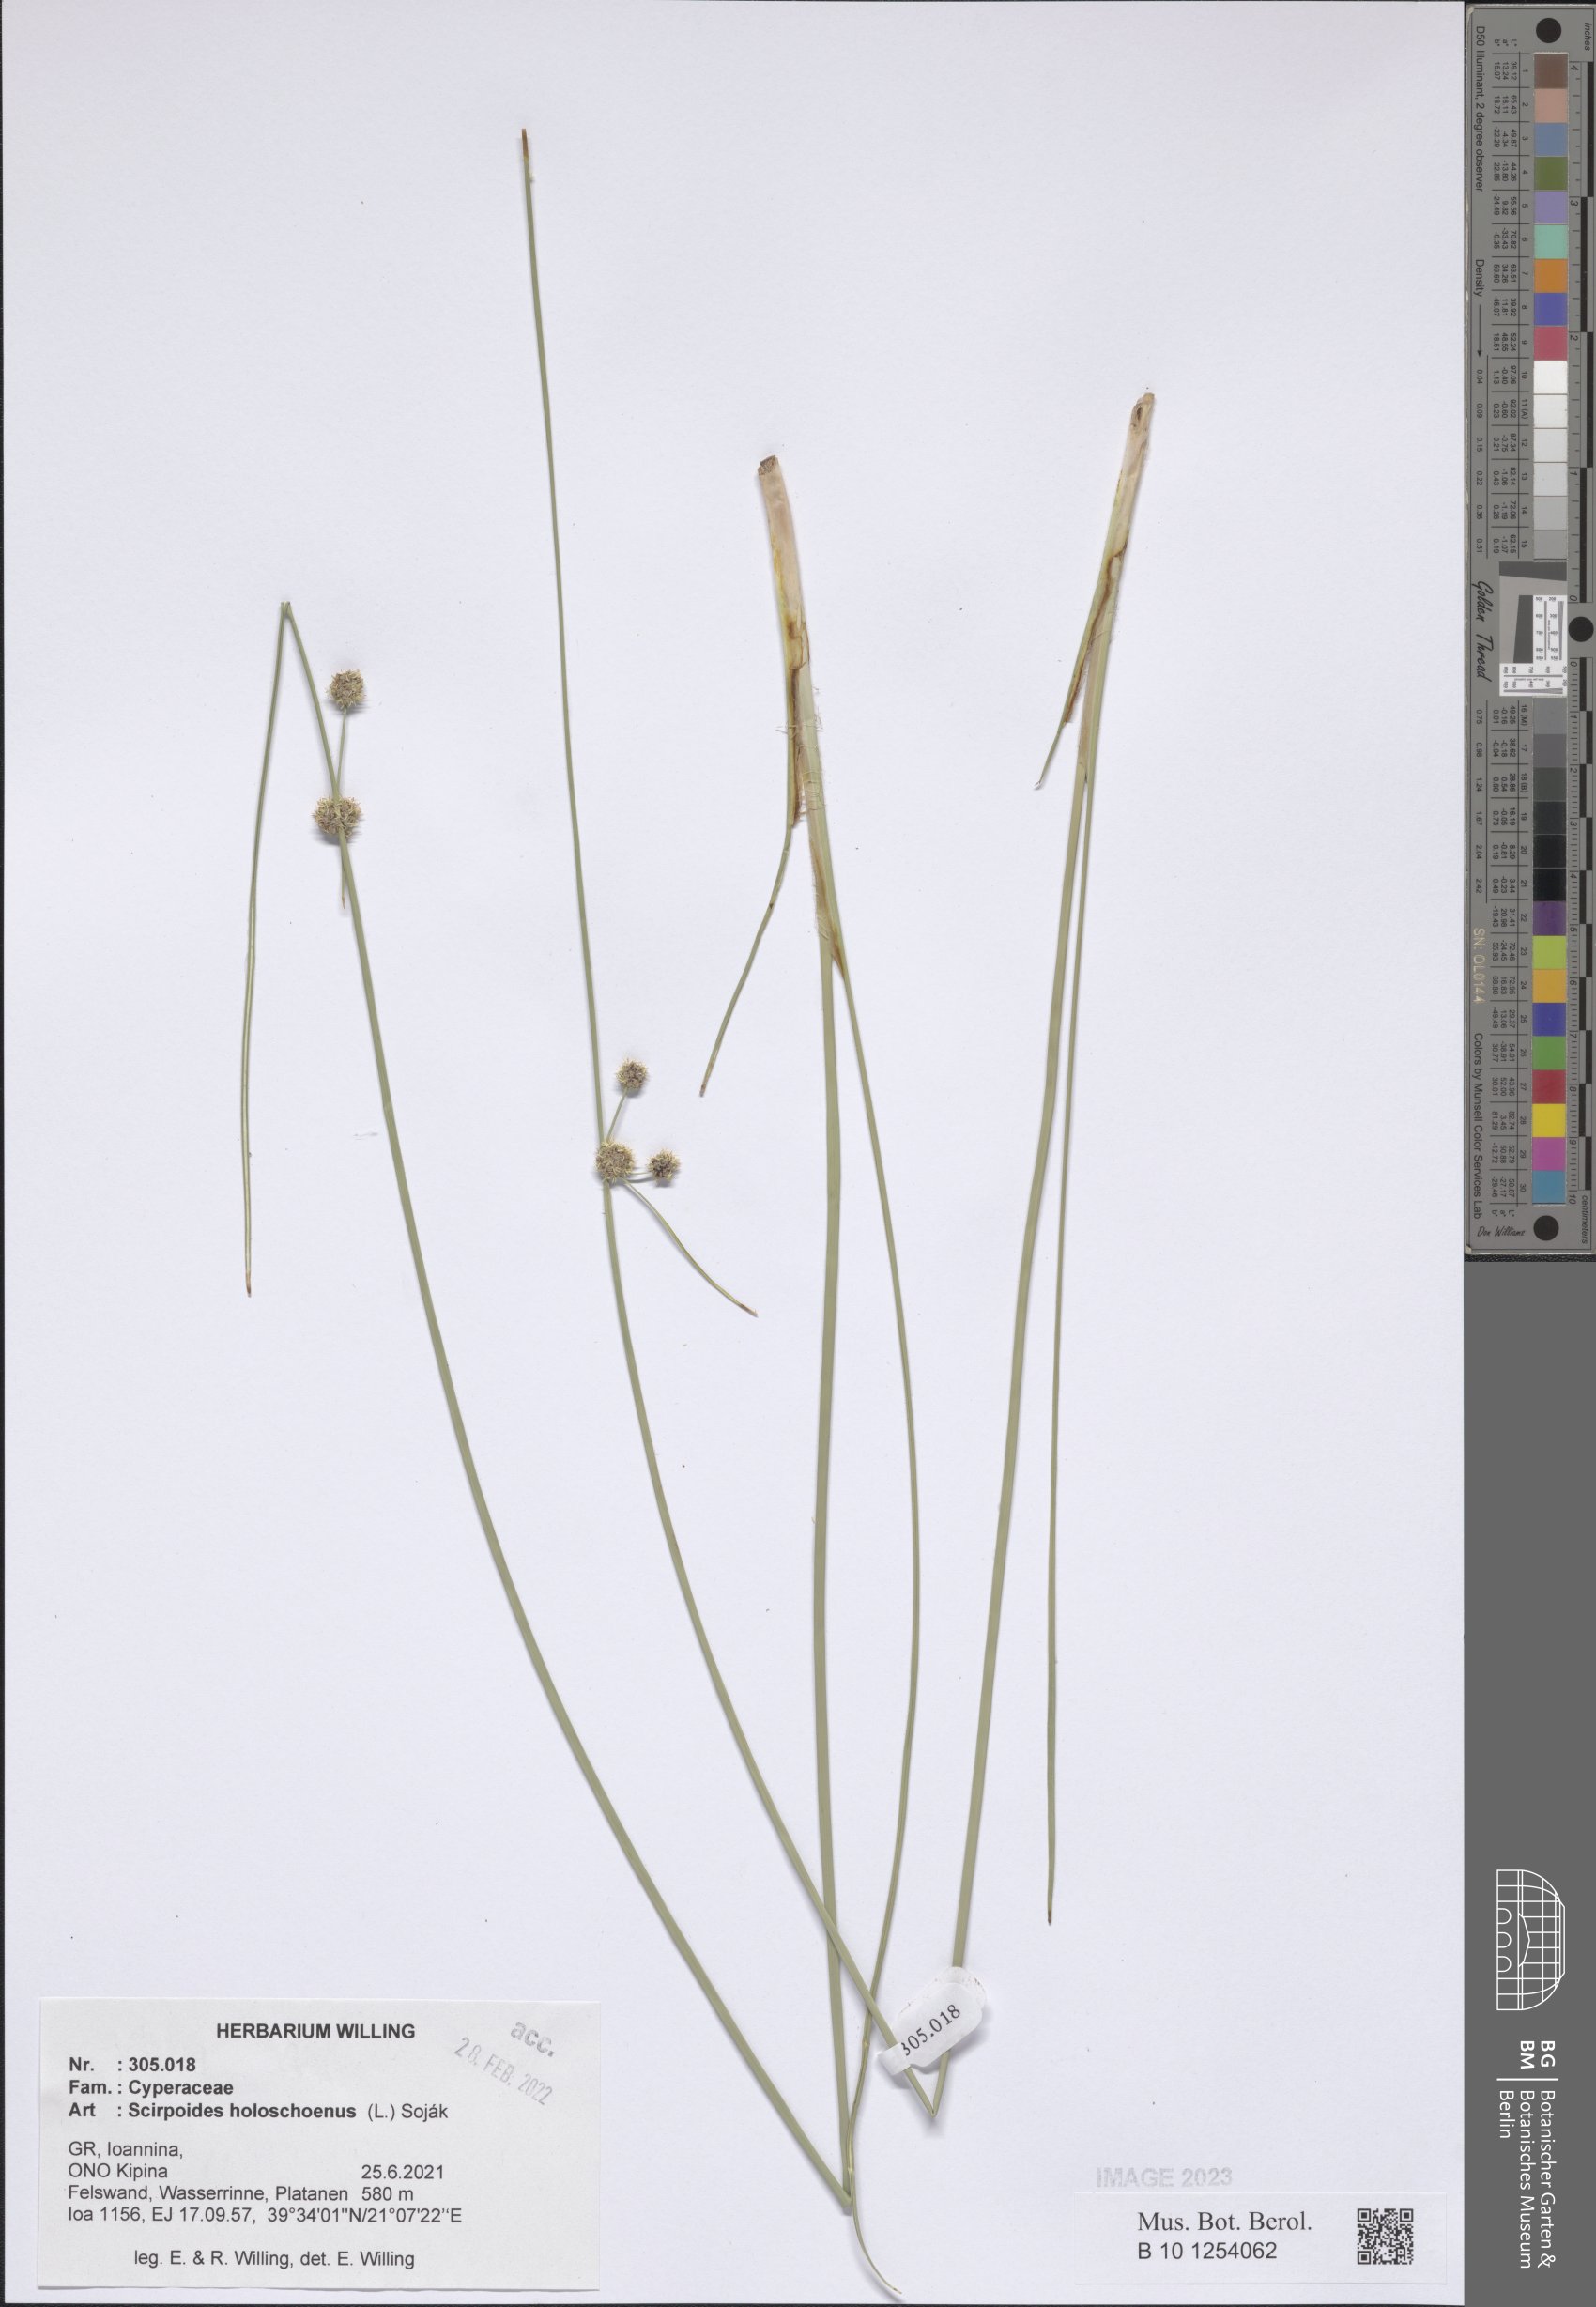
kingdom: Plantae
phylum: Tracheophyta
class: Liliopsida
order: Poales
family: Cyperaceae
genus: Scirpoides
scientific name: Scirpoides
